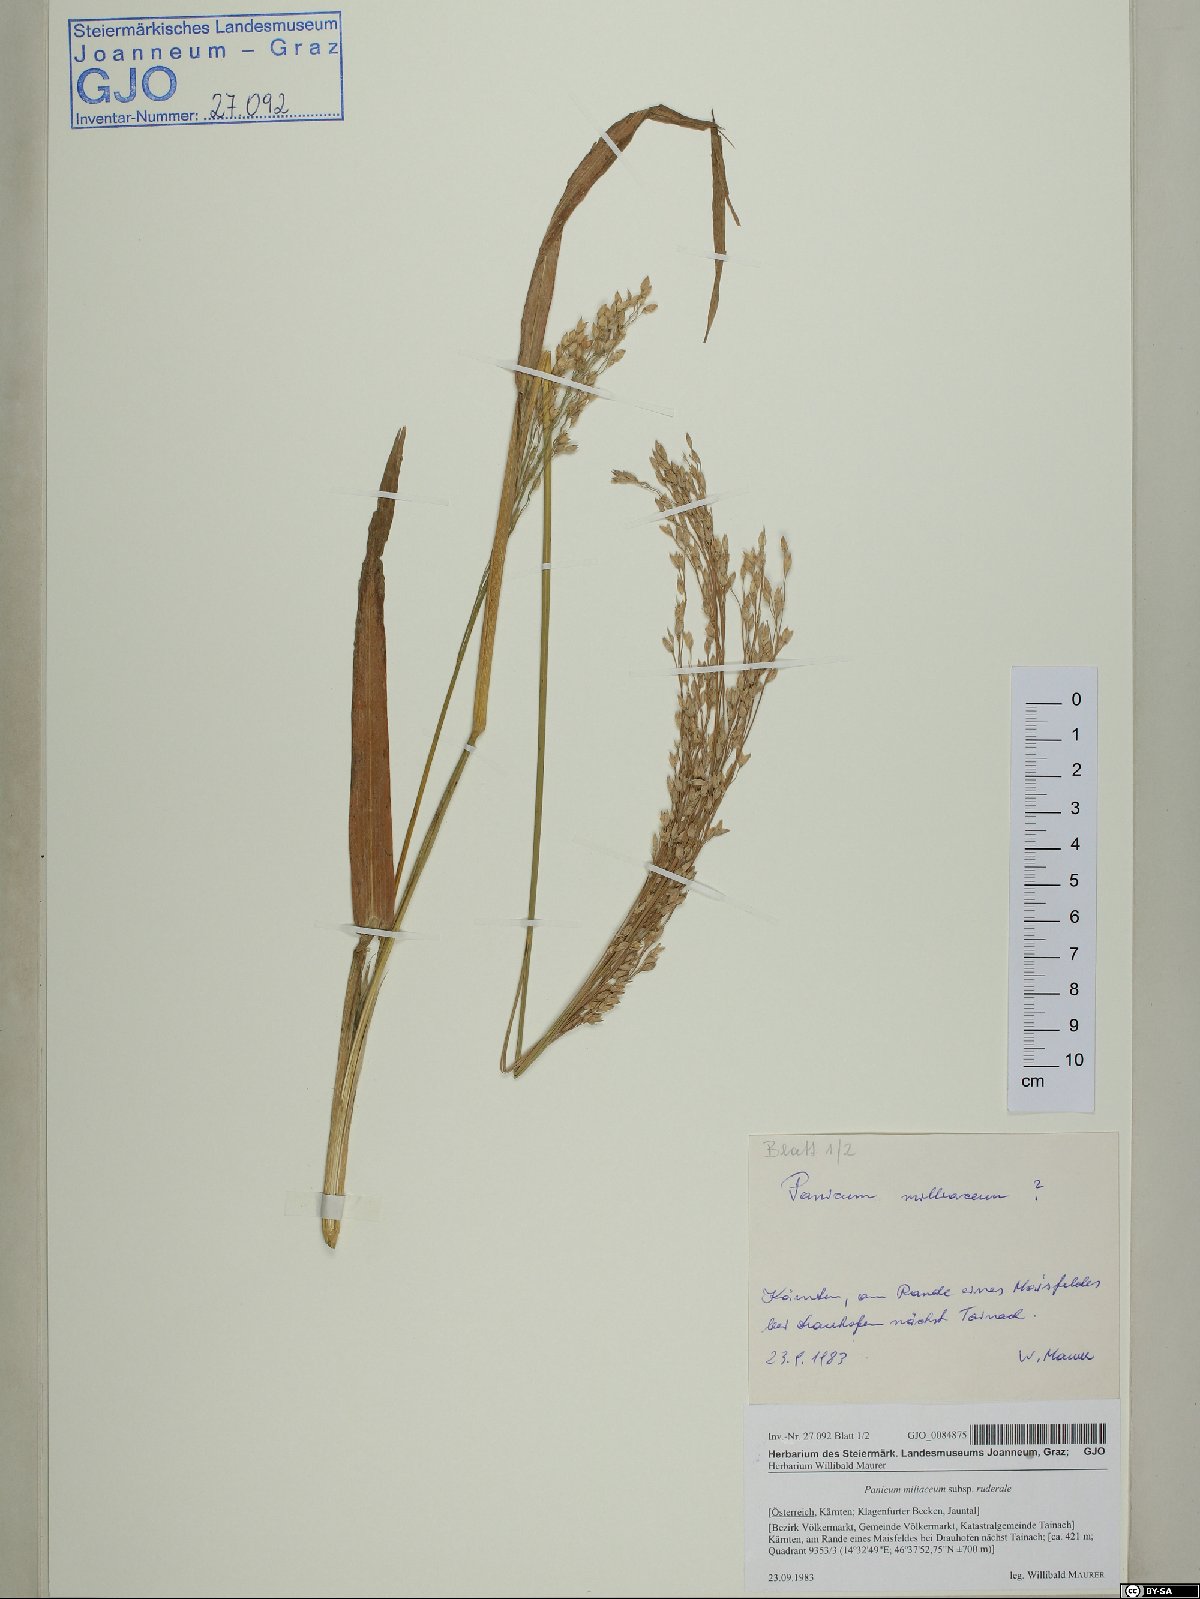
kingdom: Plantae
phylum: Tracheophyta
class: Liliopsida
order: Poales
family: Poaceae
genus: Panicum
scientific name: Panicum miliaceum
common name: Common millet
